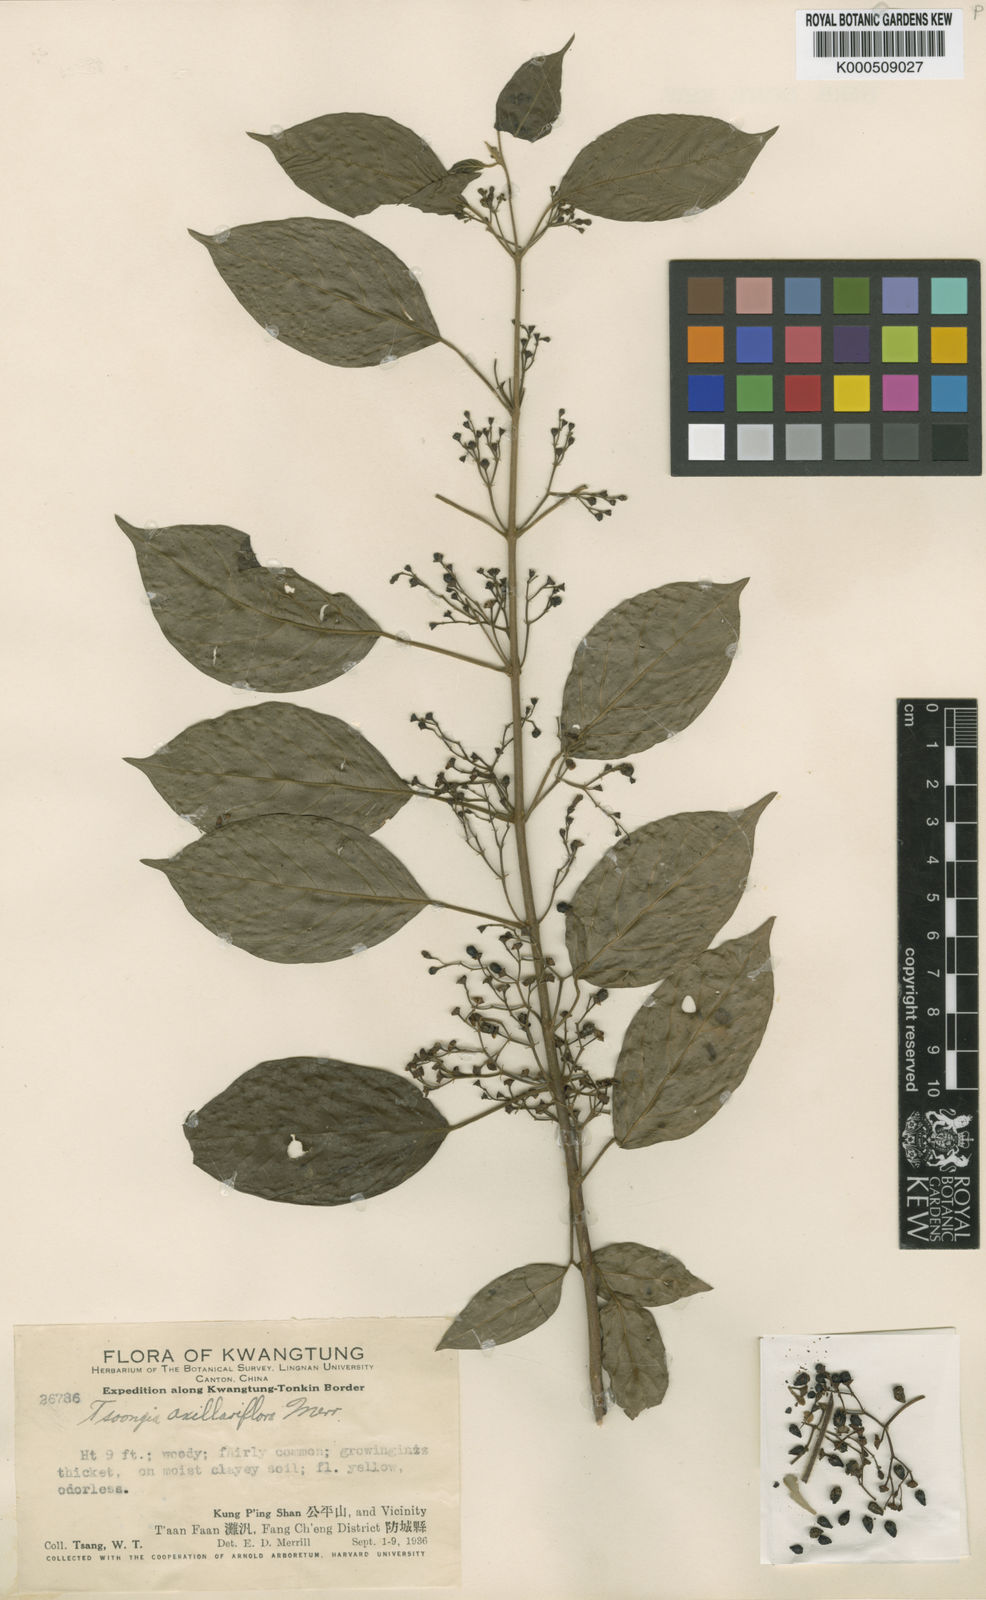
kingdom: Plantae
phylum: Tracheophyta
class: Magnoliopsida
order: Lamiales
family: Lamiaceae
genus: Vitex
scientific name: Vitex axillariflora
